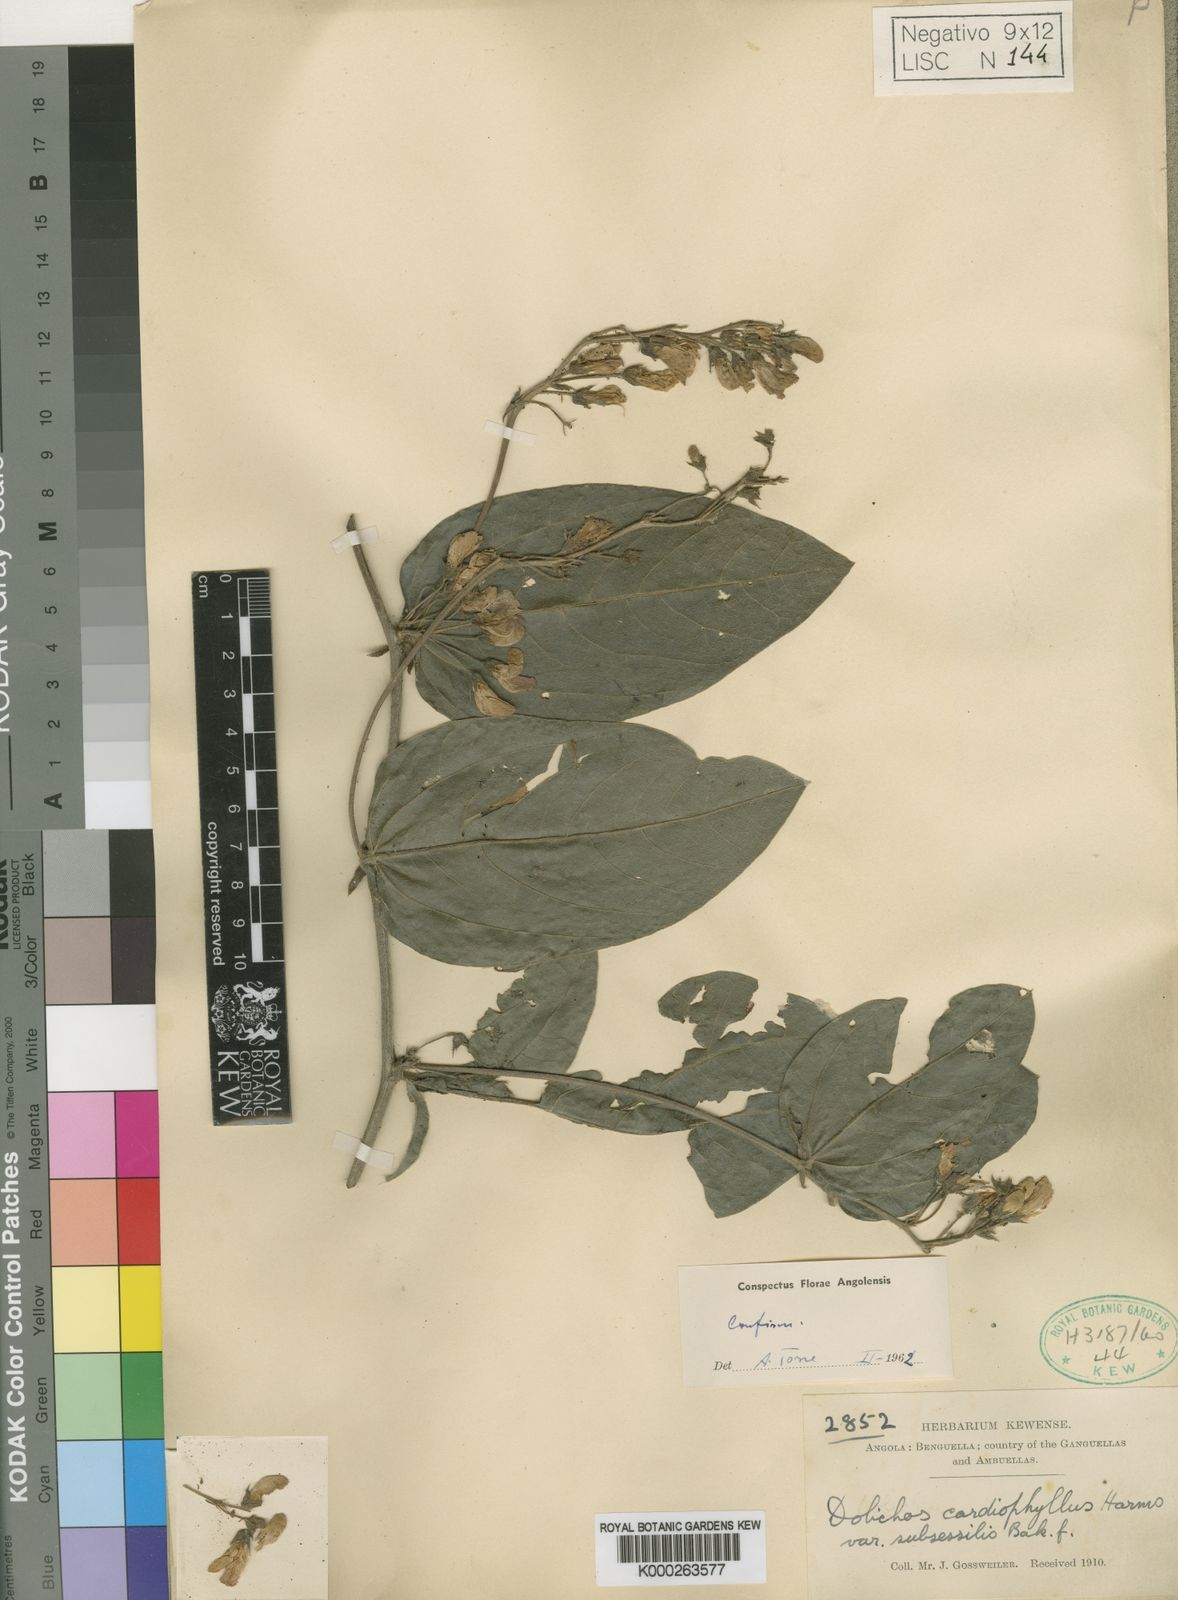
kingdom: Plantae
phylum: Tracheophyta
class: Magnoliopsida
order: Fabales
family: Fabaceae
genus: Dolichos
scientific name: Dolichos cardiophyllus
